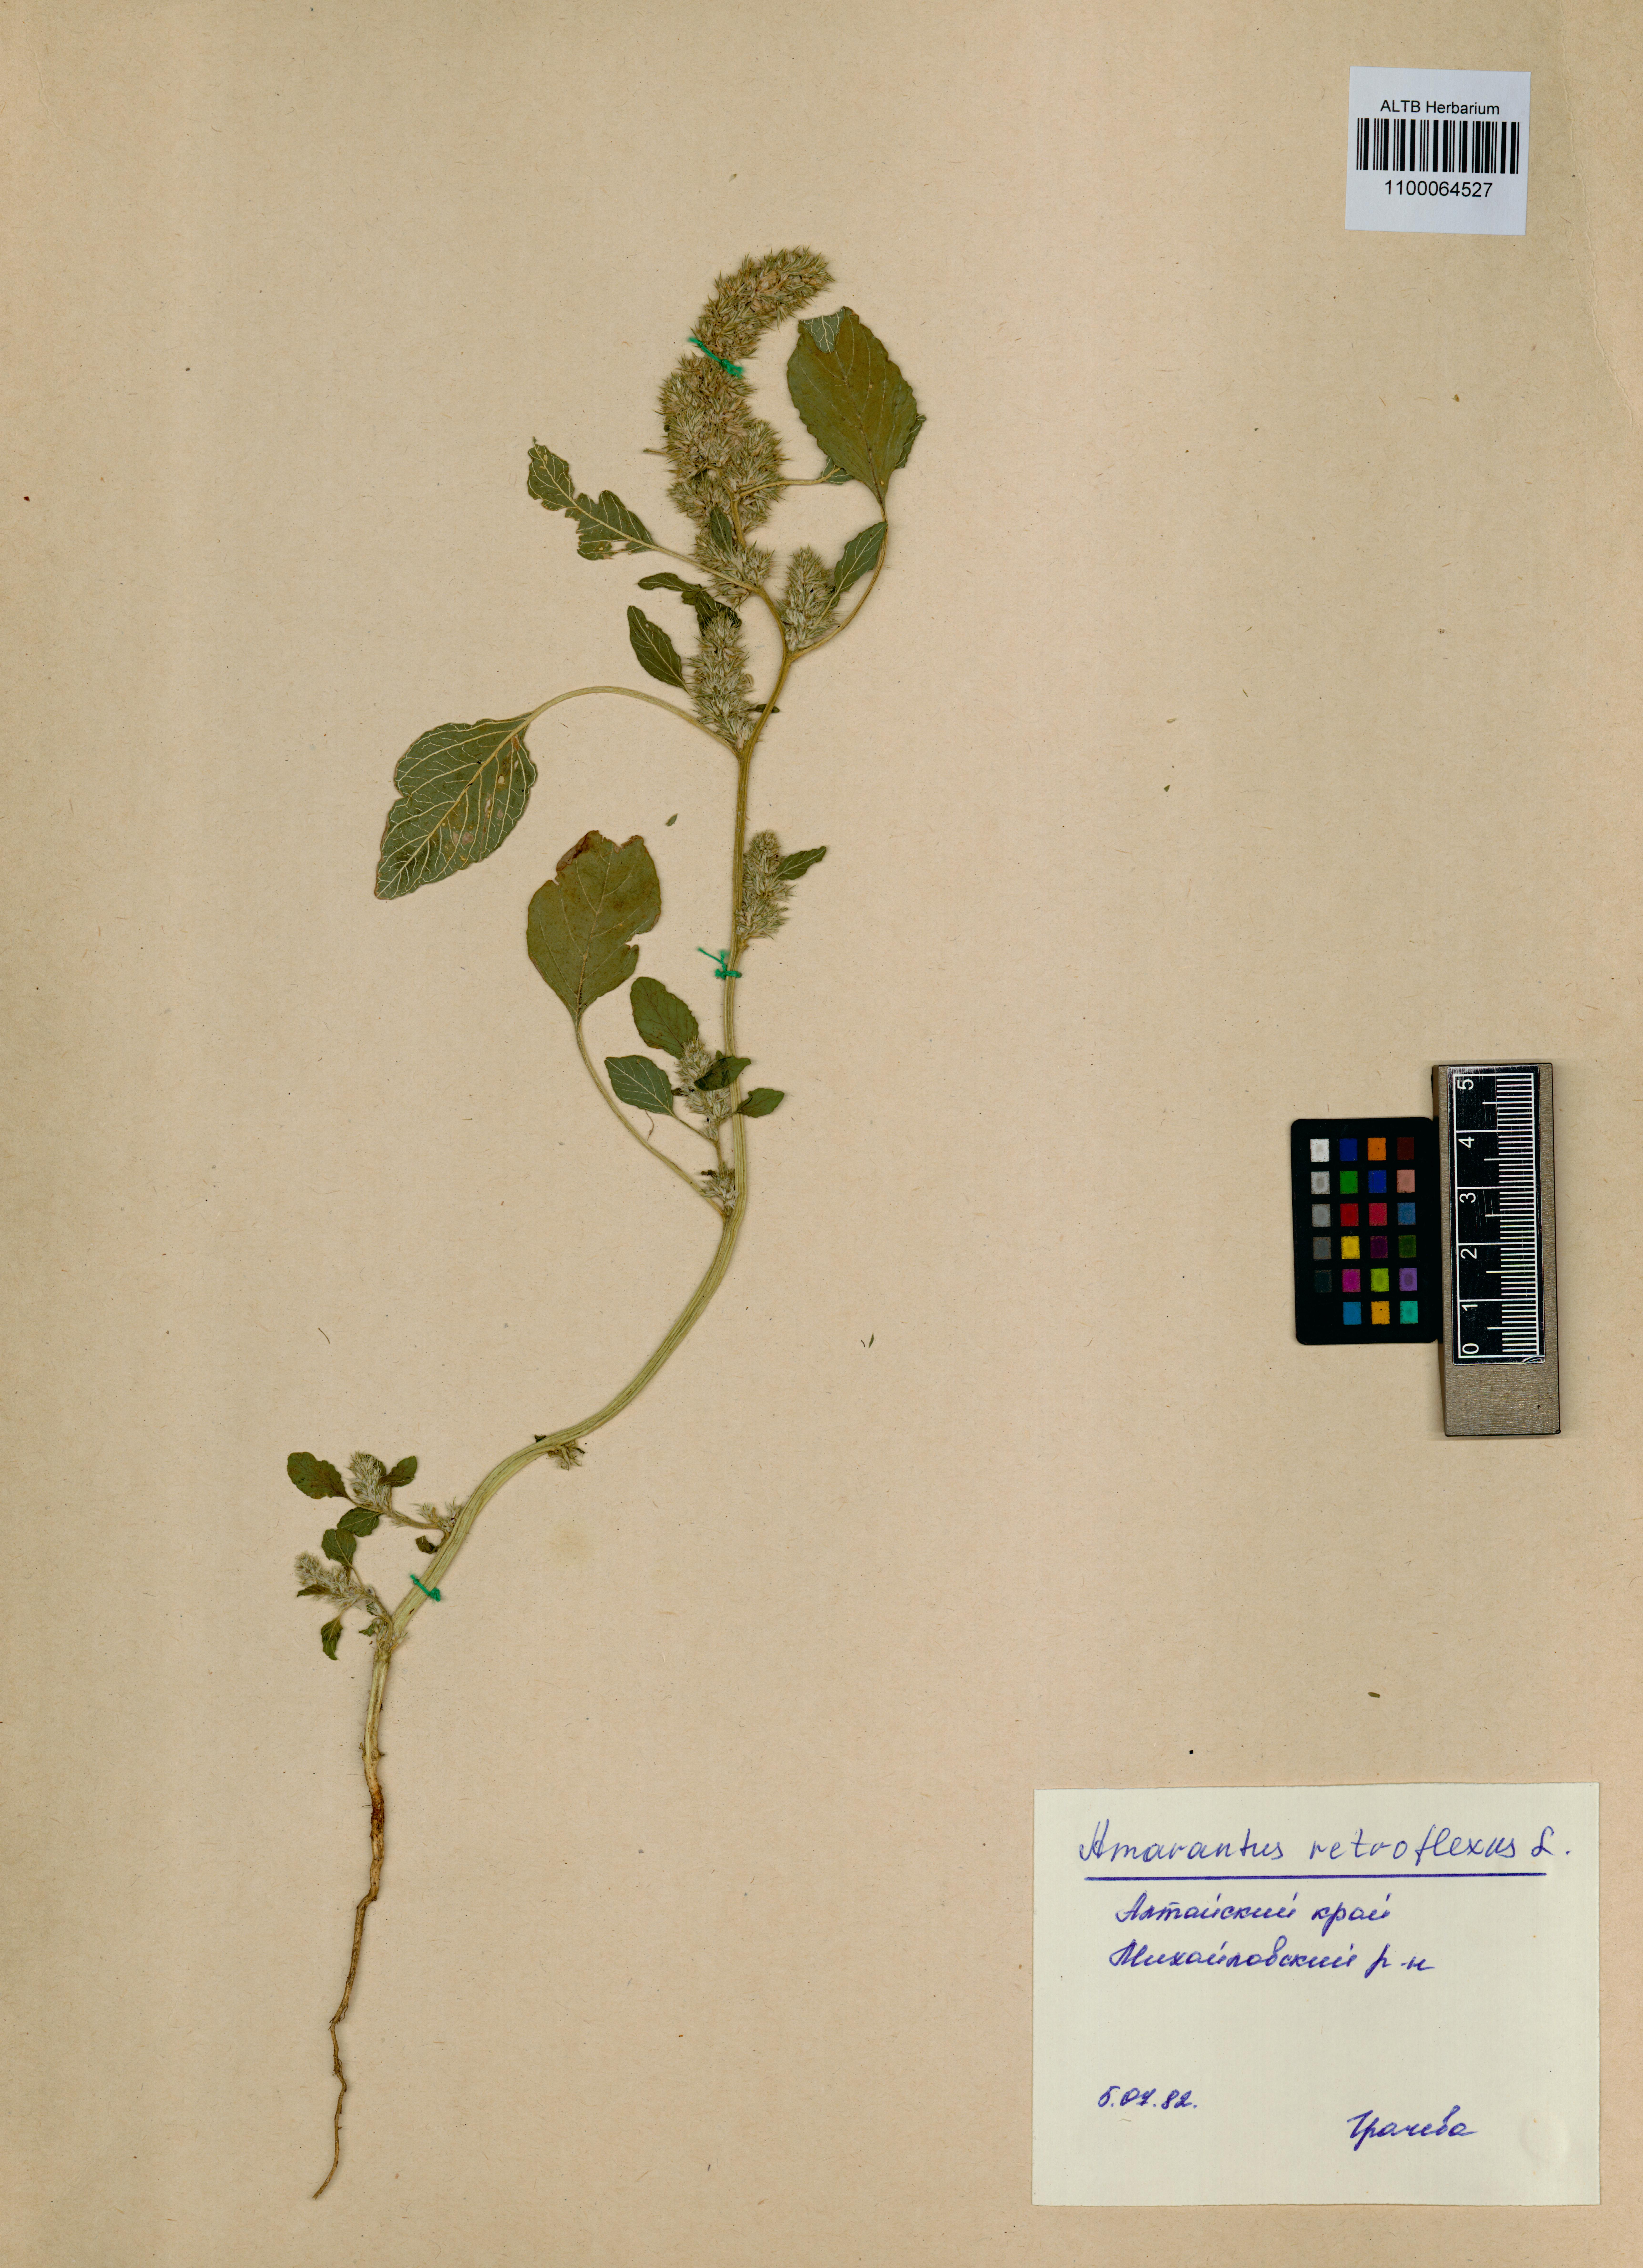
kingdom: Plantae
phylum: Tracheophyta
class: Magnoliopsida
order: Caryophyllales
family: Amaranthaceae
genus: Amaranthus
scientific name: Amaranthus retroflexus
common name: Redroot amaranth
